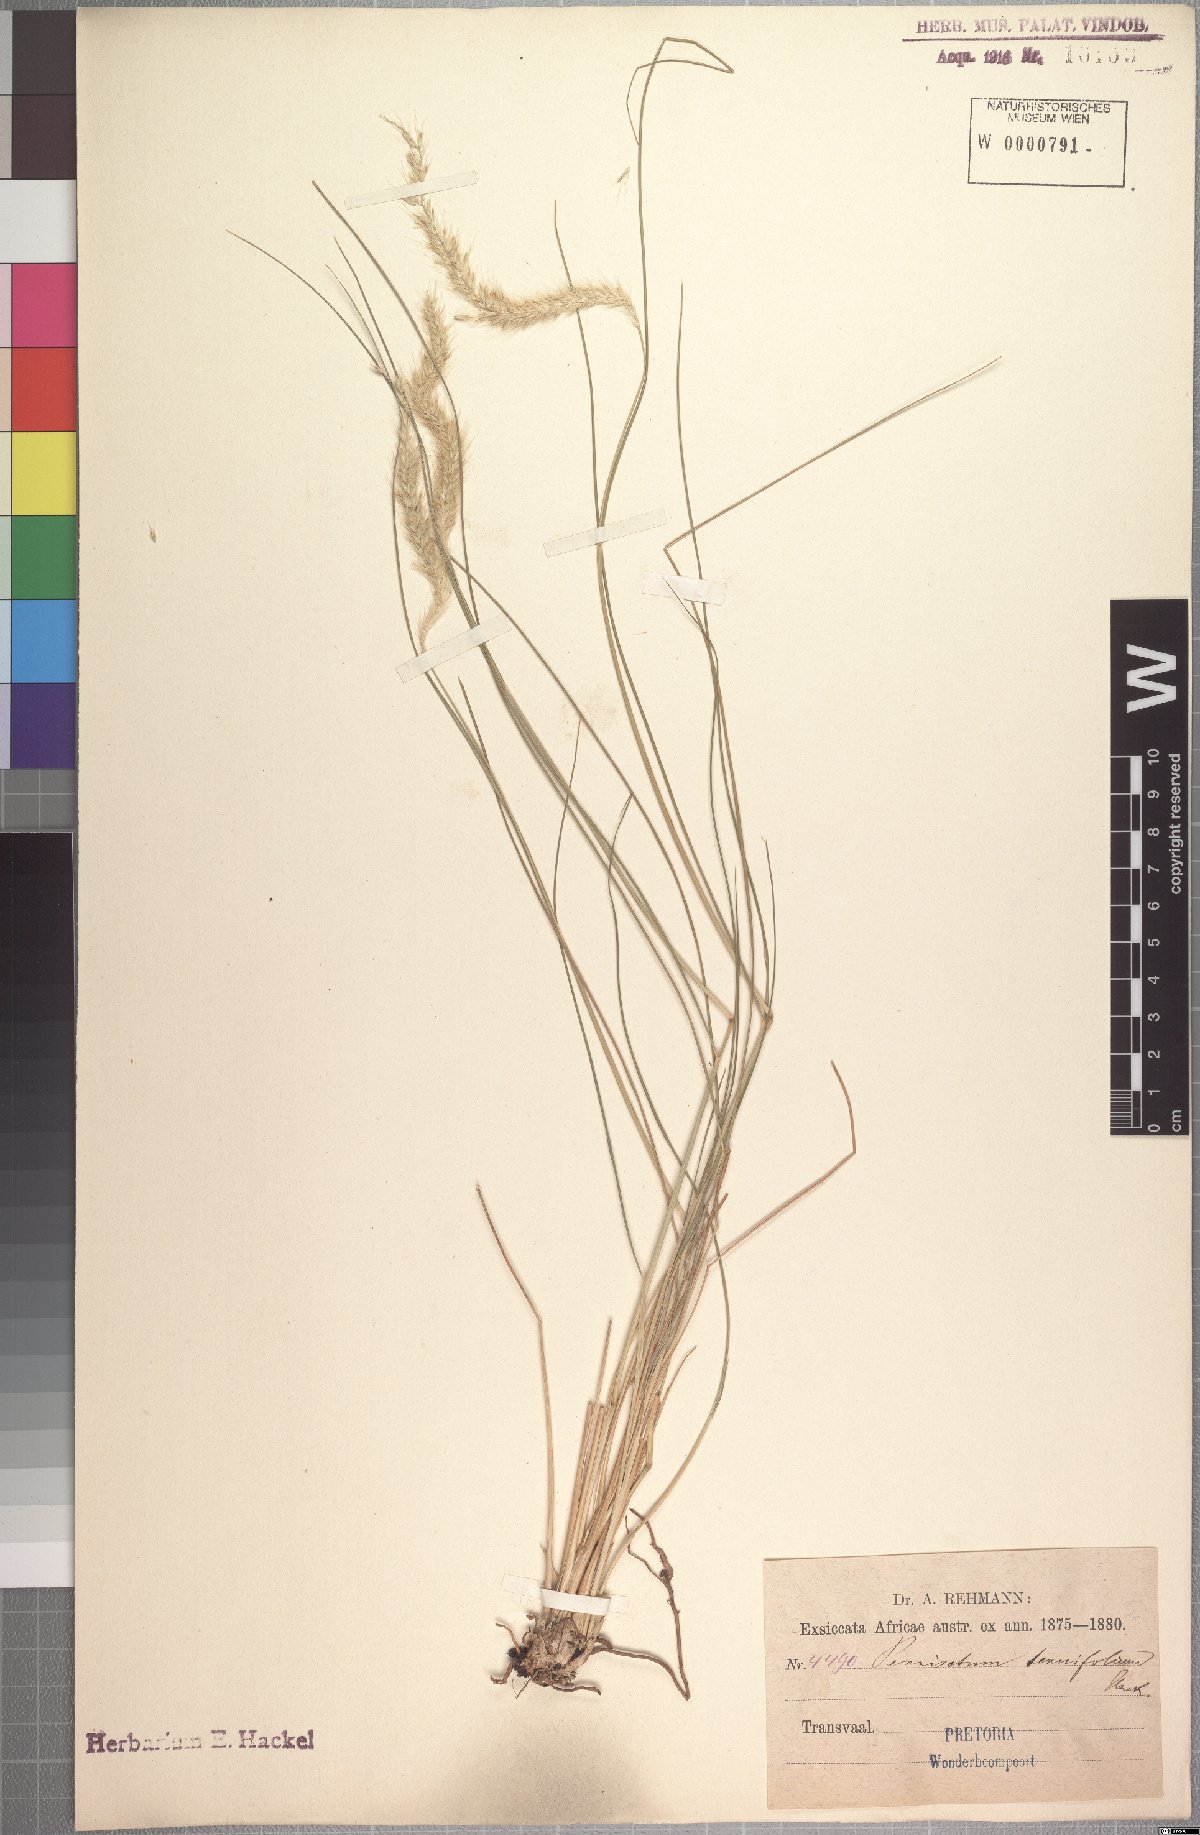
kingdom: Plantae
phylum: Tracheophyta
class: Liliopsida
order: Poales
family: Poaceae
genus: Cenchrus
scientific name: Cenchrus sphacelatus
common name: Bulgras
